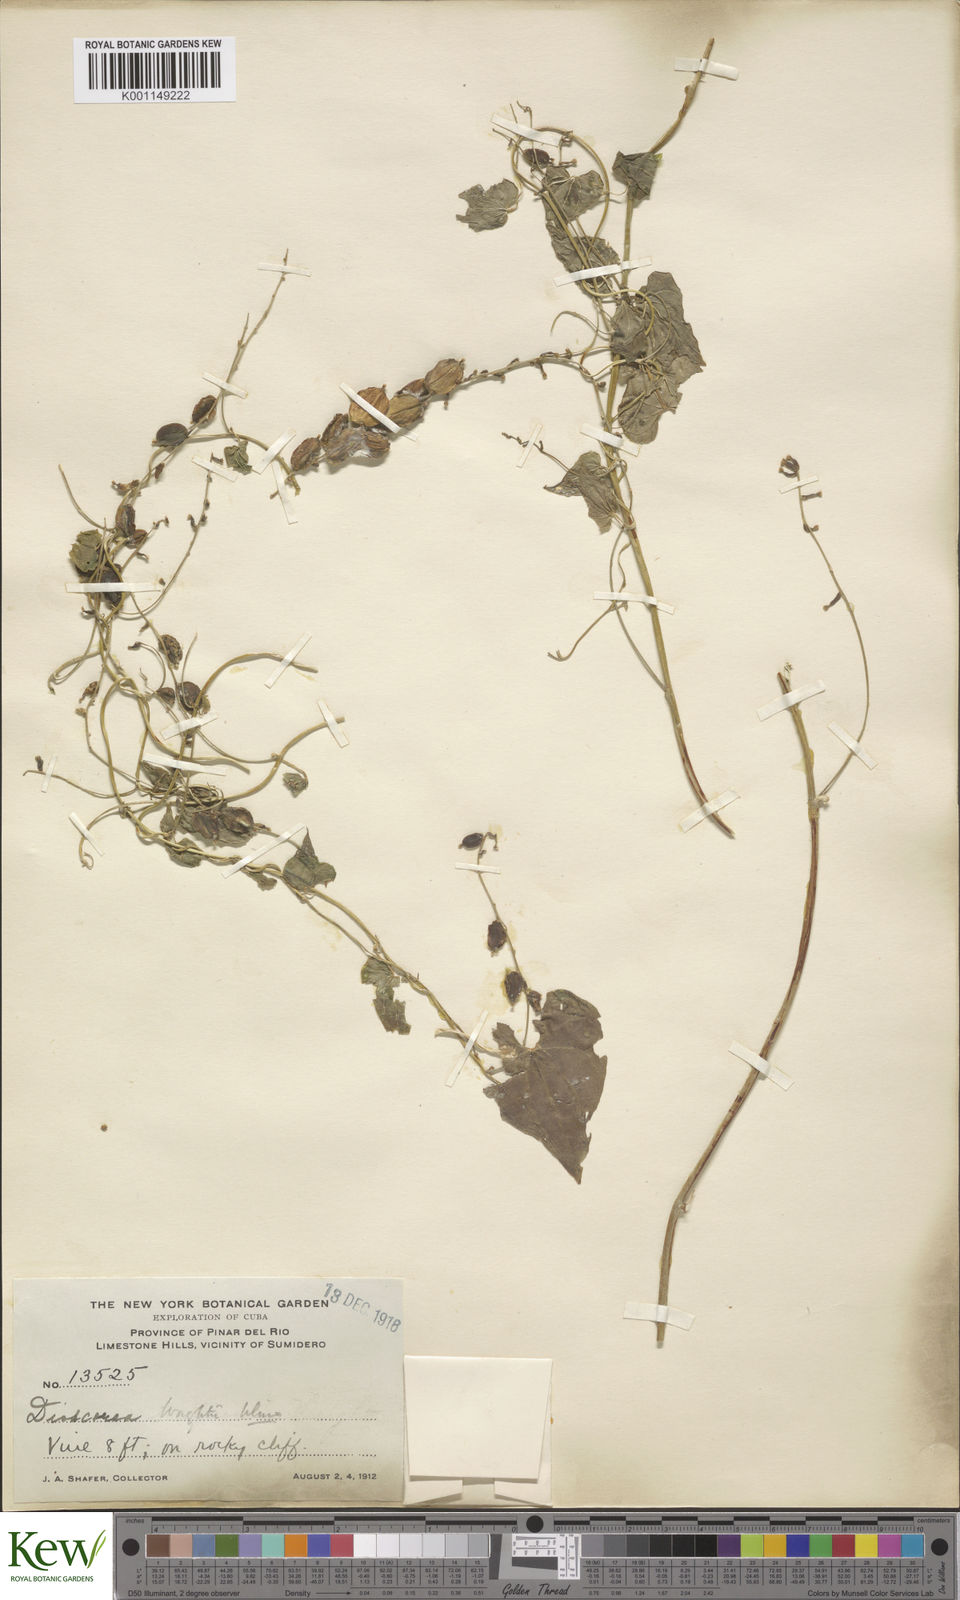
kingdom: Plantae
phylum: Tracheophyta
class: Liliopsida
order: Dioscoreales
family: Dioscoreaceae
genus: Dioscorea
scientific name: Dioscorea wrightii
